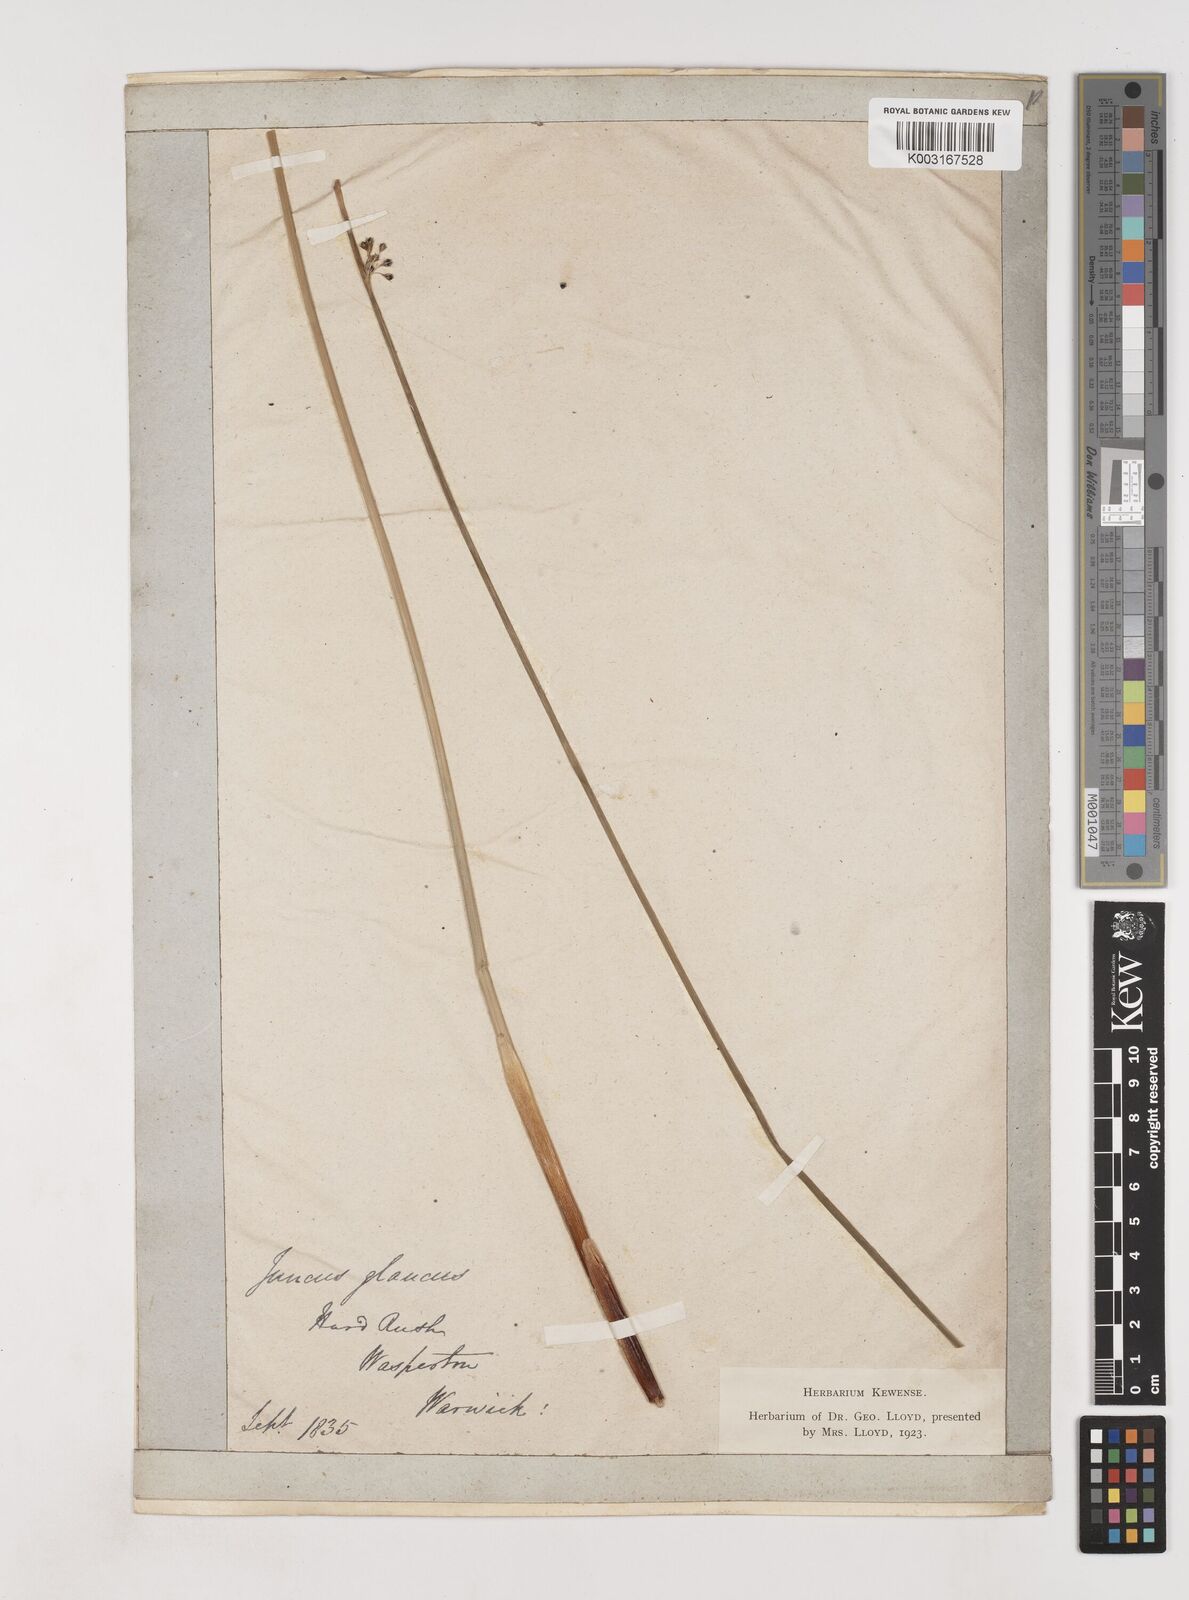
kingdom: Plantae
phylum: Tracheophyta
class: Liliopsida
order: Poales
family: Juncaceae
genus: Juncus
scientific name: Juncus inflexus
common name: Hard rush
